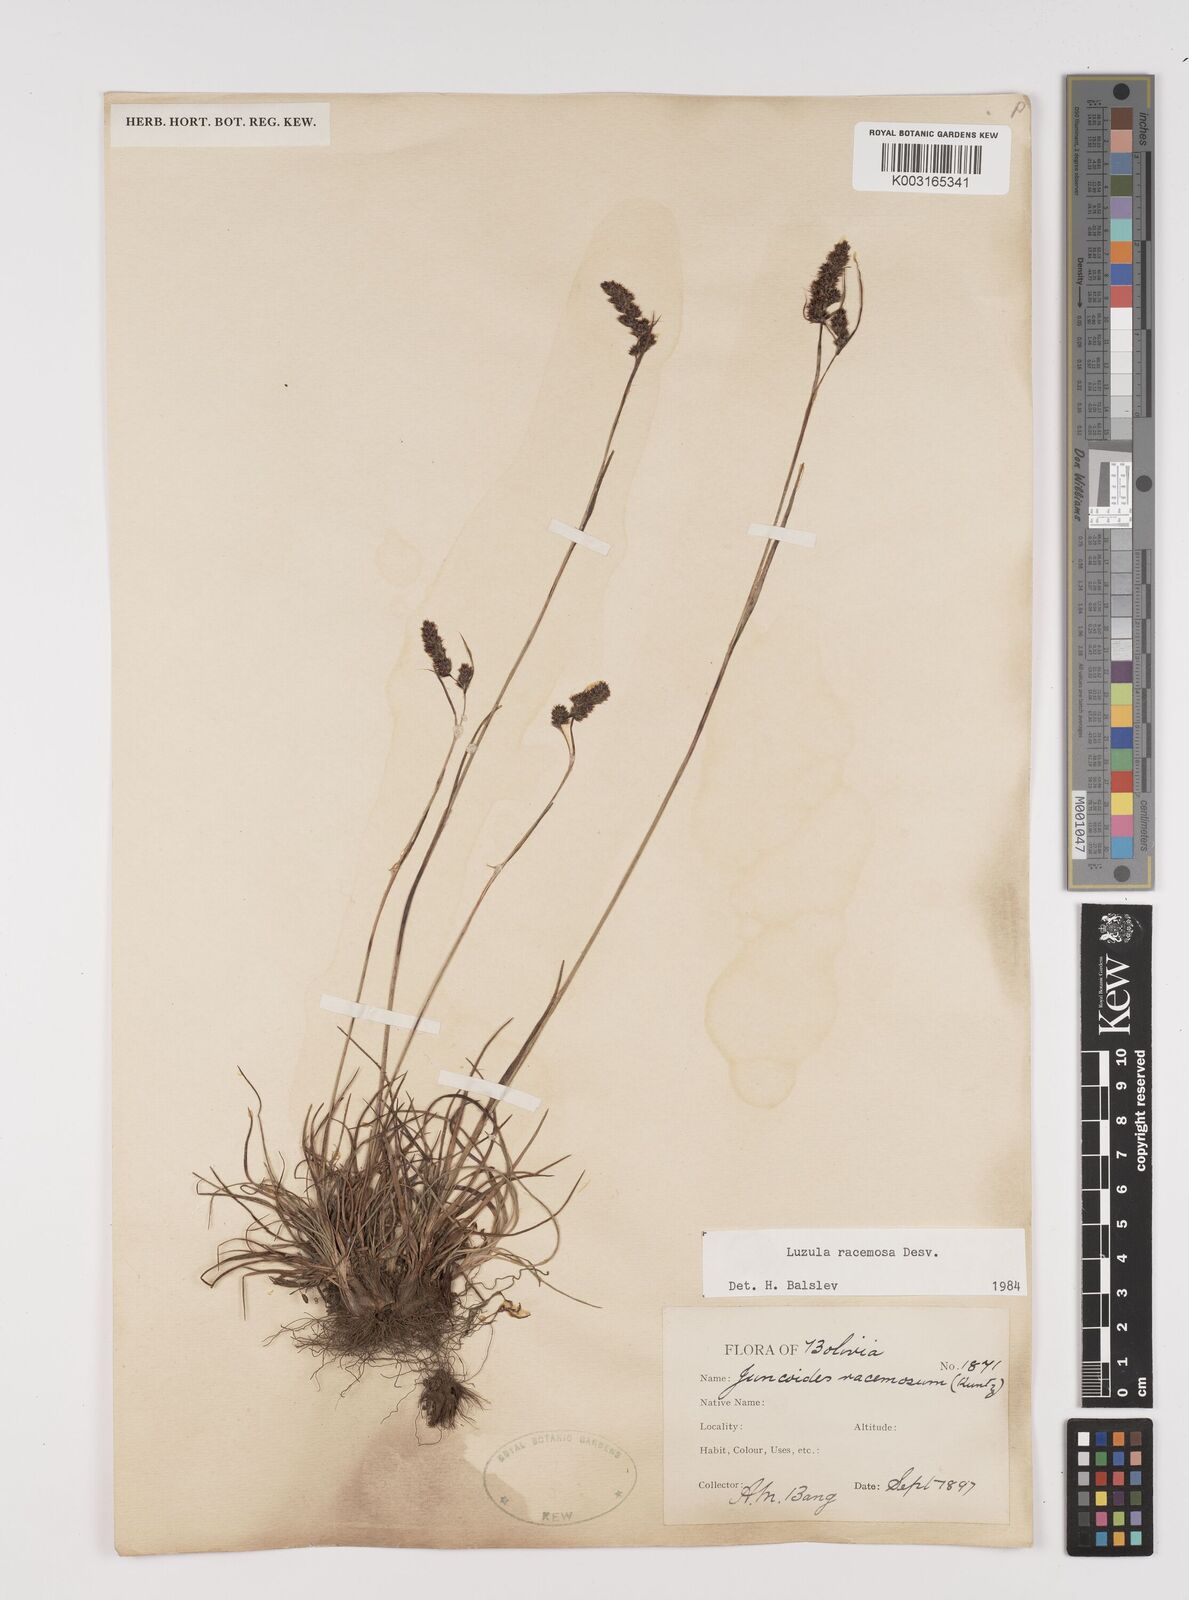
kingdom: Plantae
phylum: Tracheophyta
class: Liliopsida
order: Poales
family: Juncaceae
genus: Luzula
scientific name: Luzula racemosa
